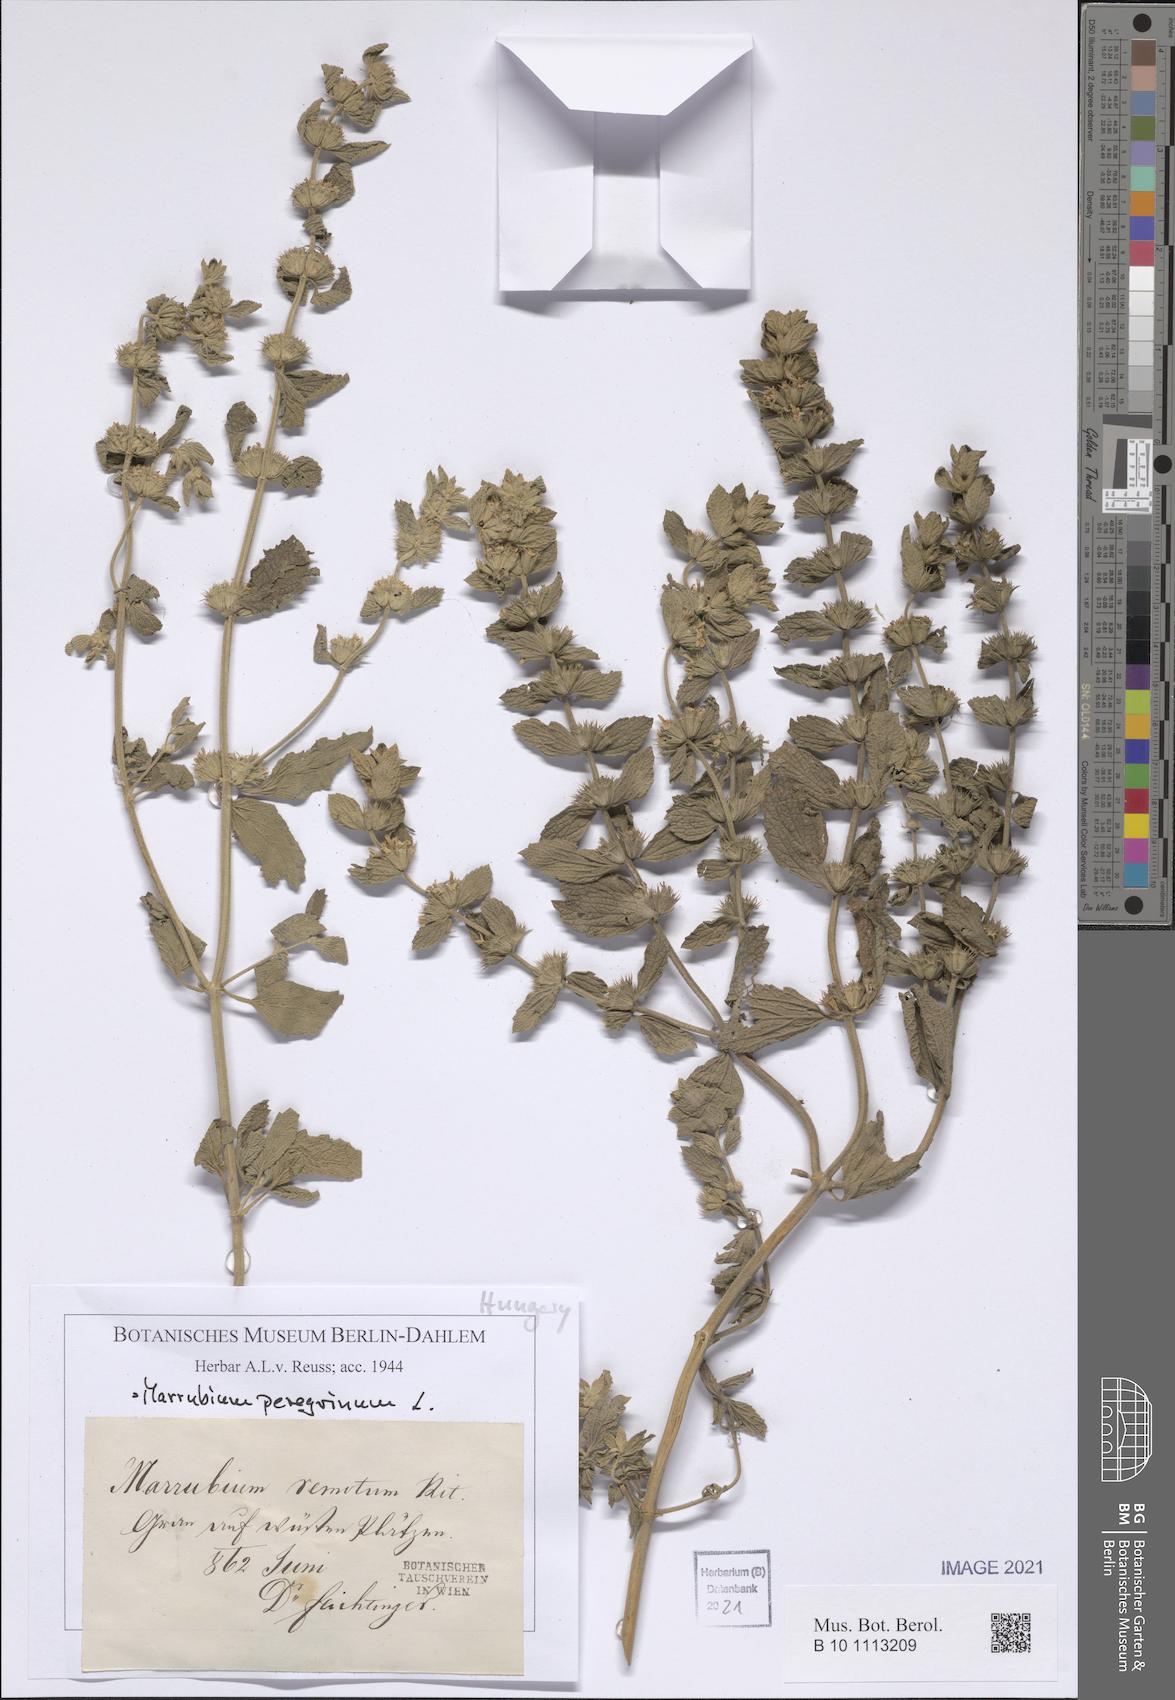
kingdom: Plantae
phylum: Tracheophyta
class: Magnoliopsida
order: Lamiales
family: Lamiaceae
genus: Marrubium
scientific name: Marrubium peregrinum
